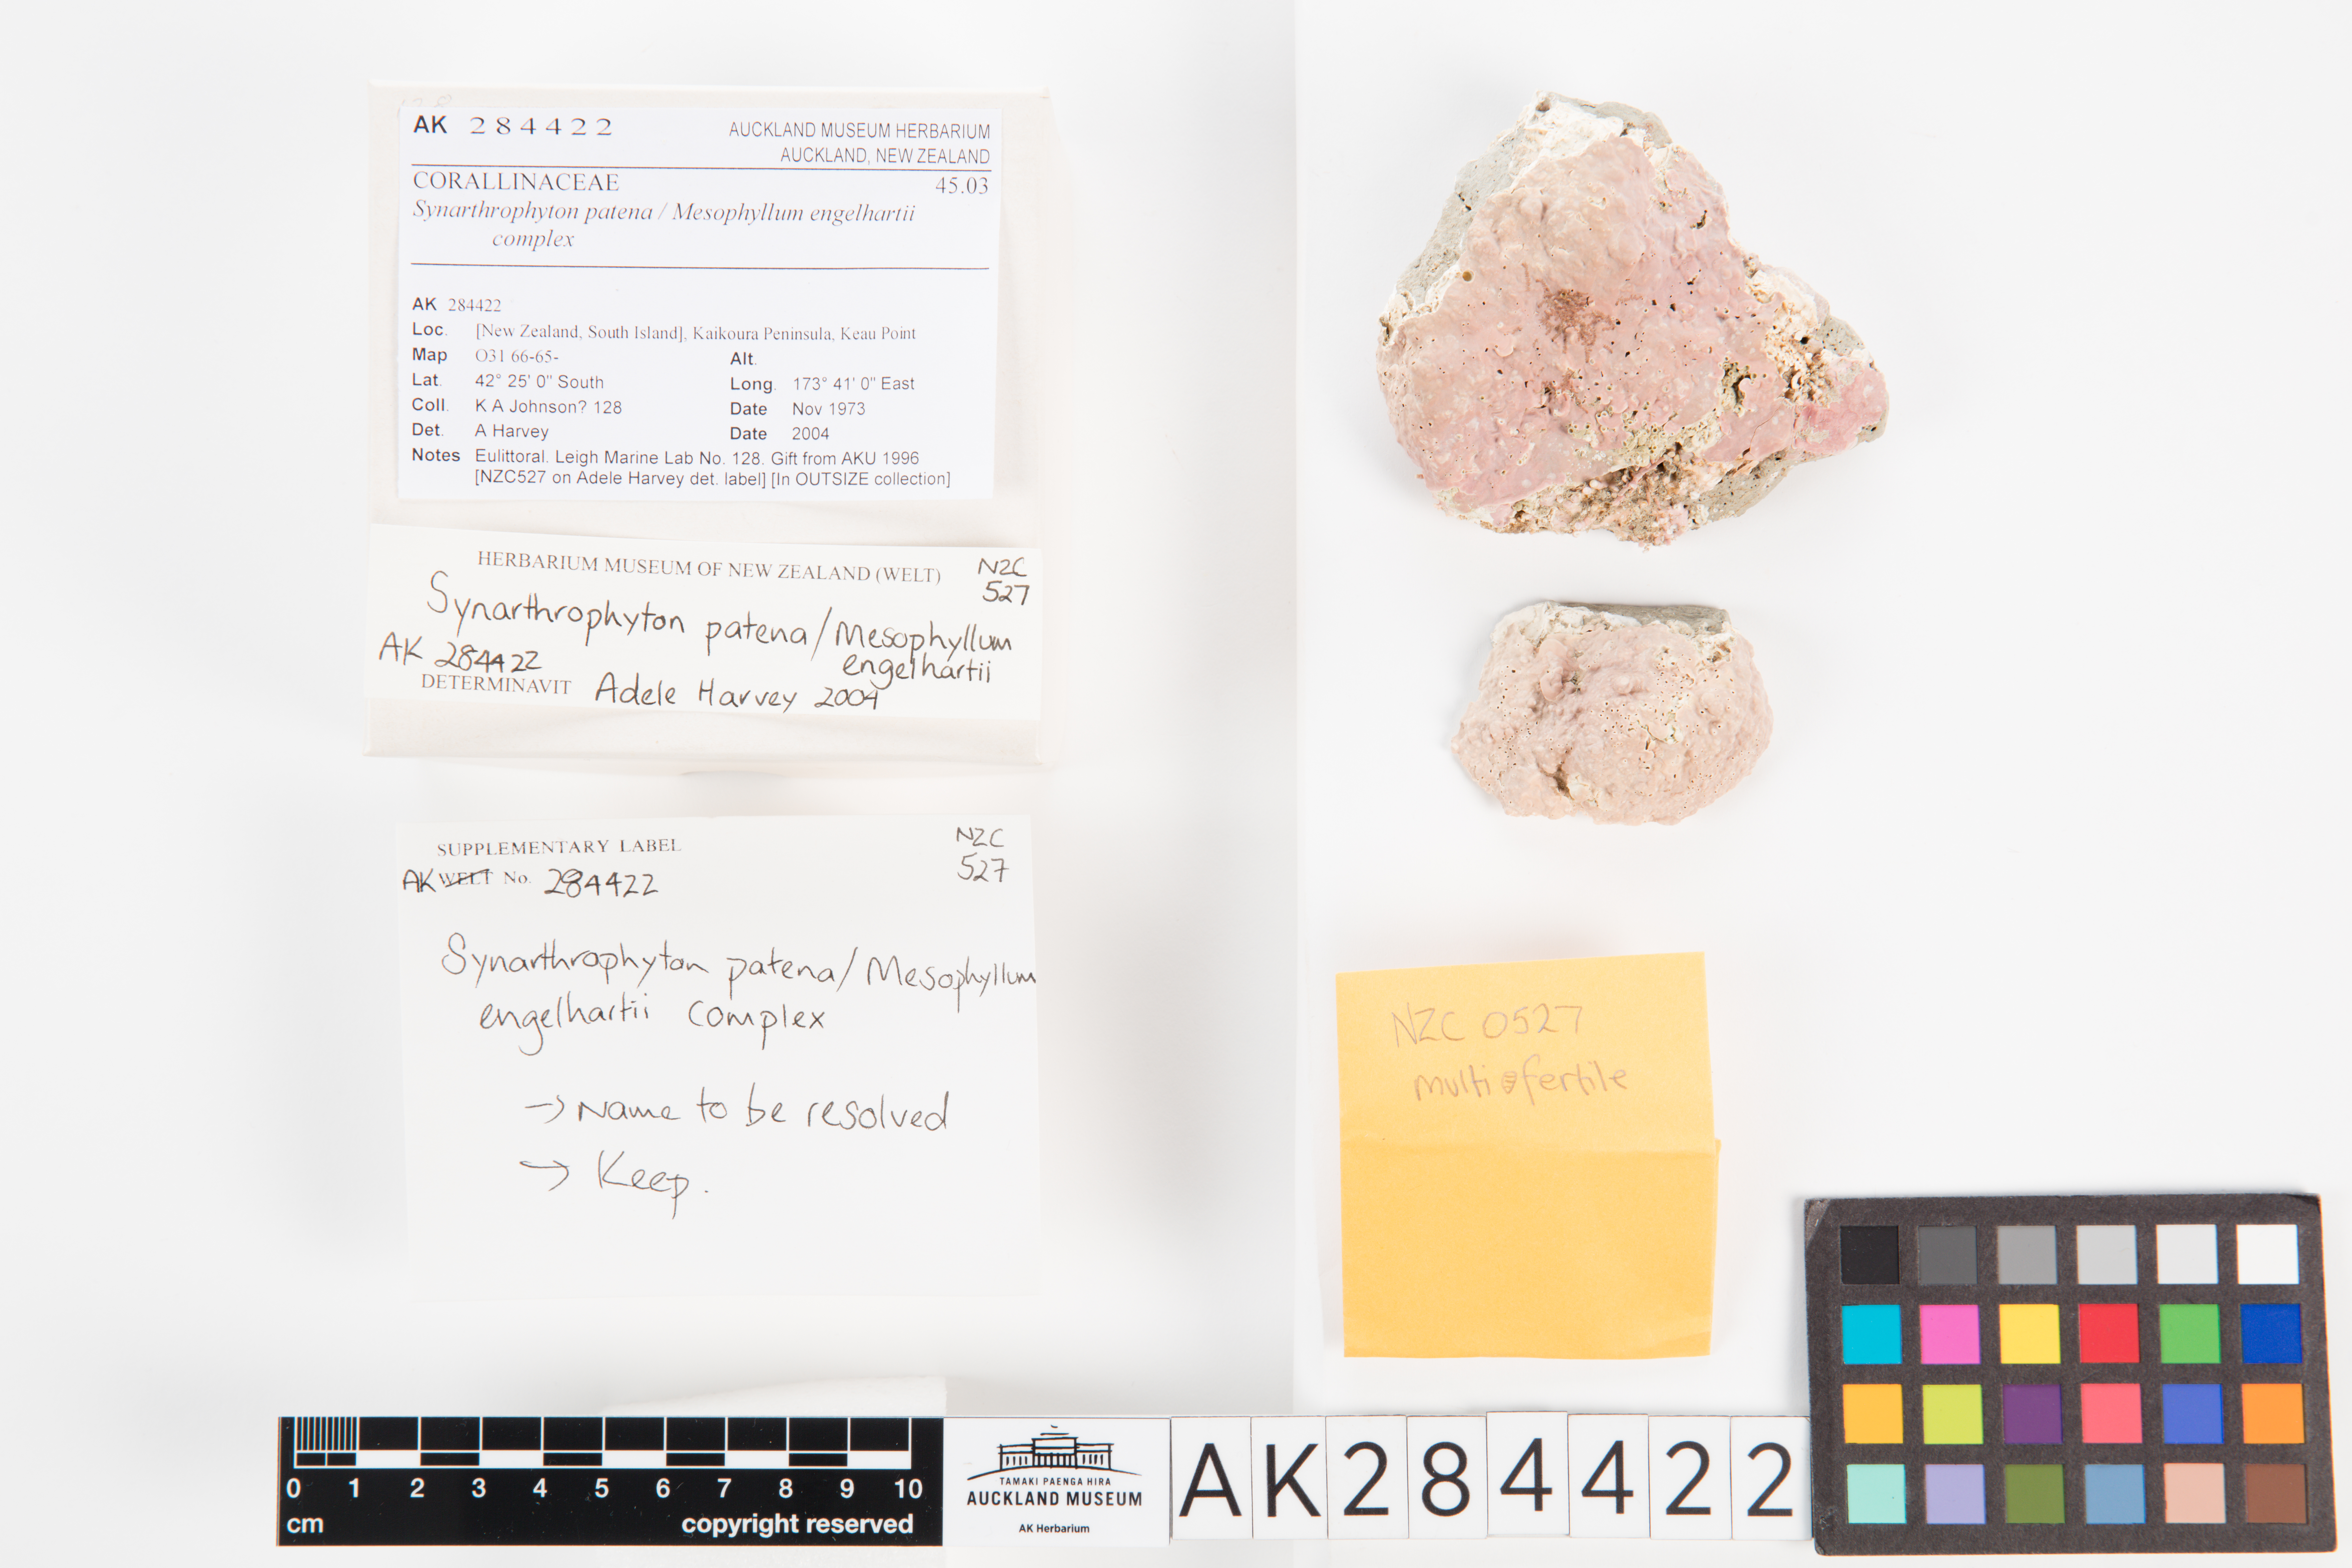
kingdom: Plantae
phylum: Rhodophyta
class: Florideophyceae
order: Corallinales
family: Hapalidiaceae
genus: Synarthrophyton
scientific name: Synarthrophyton patena
